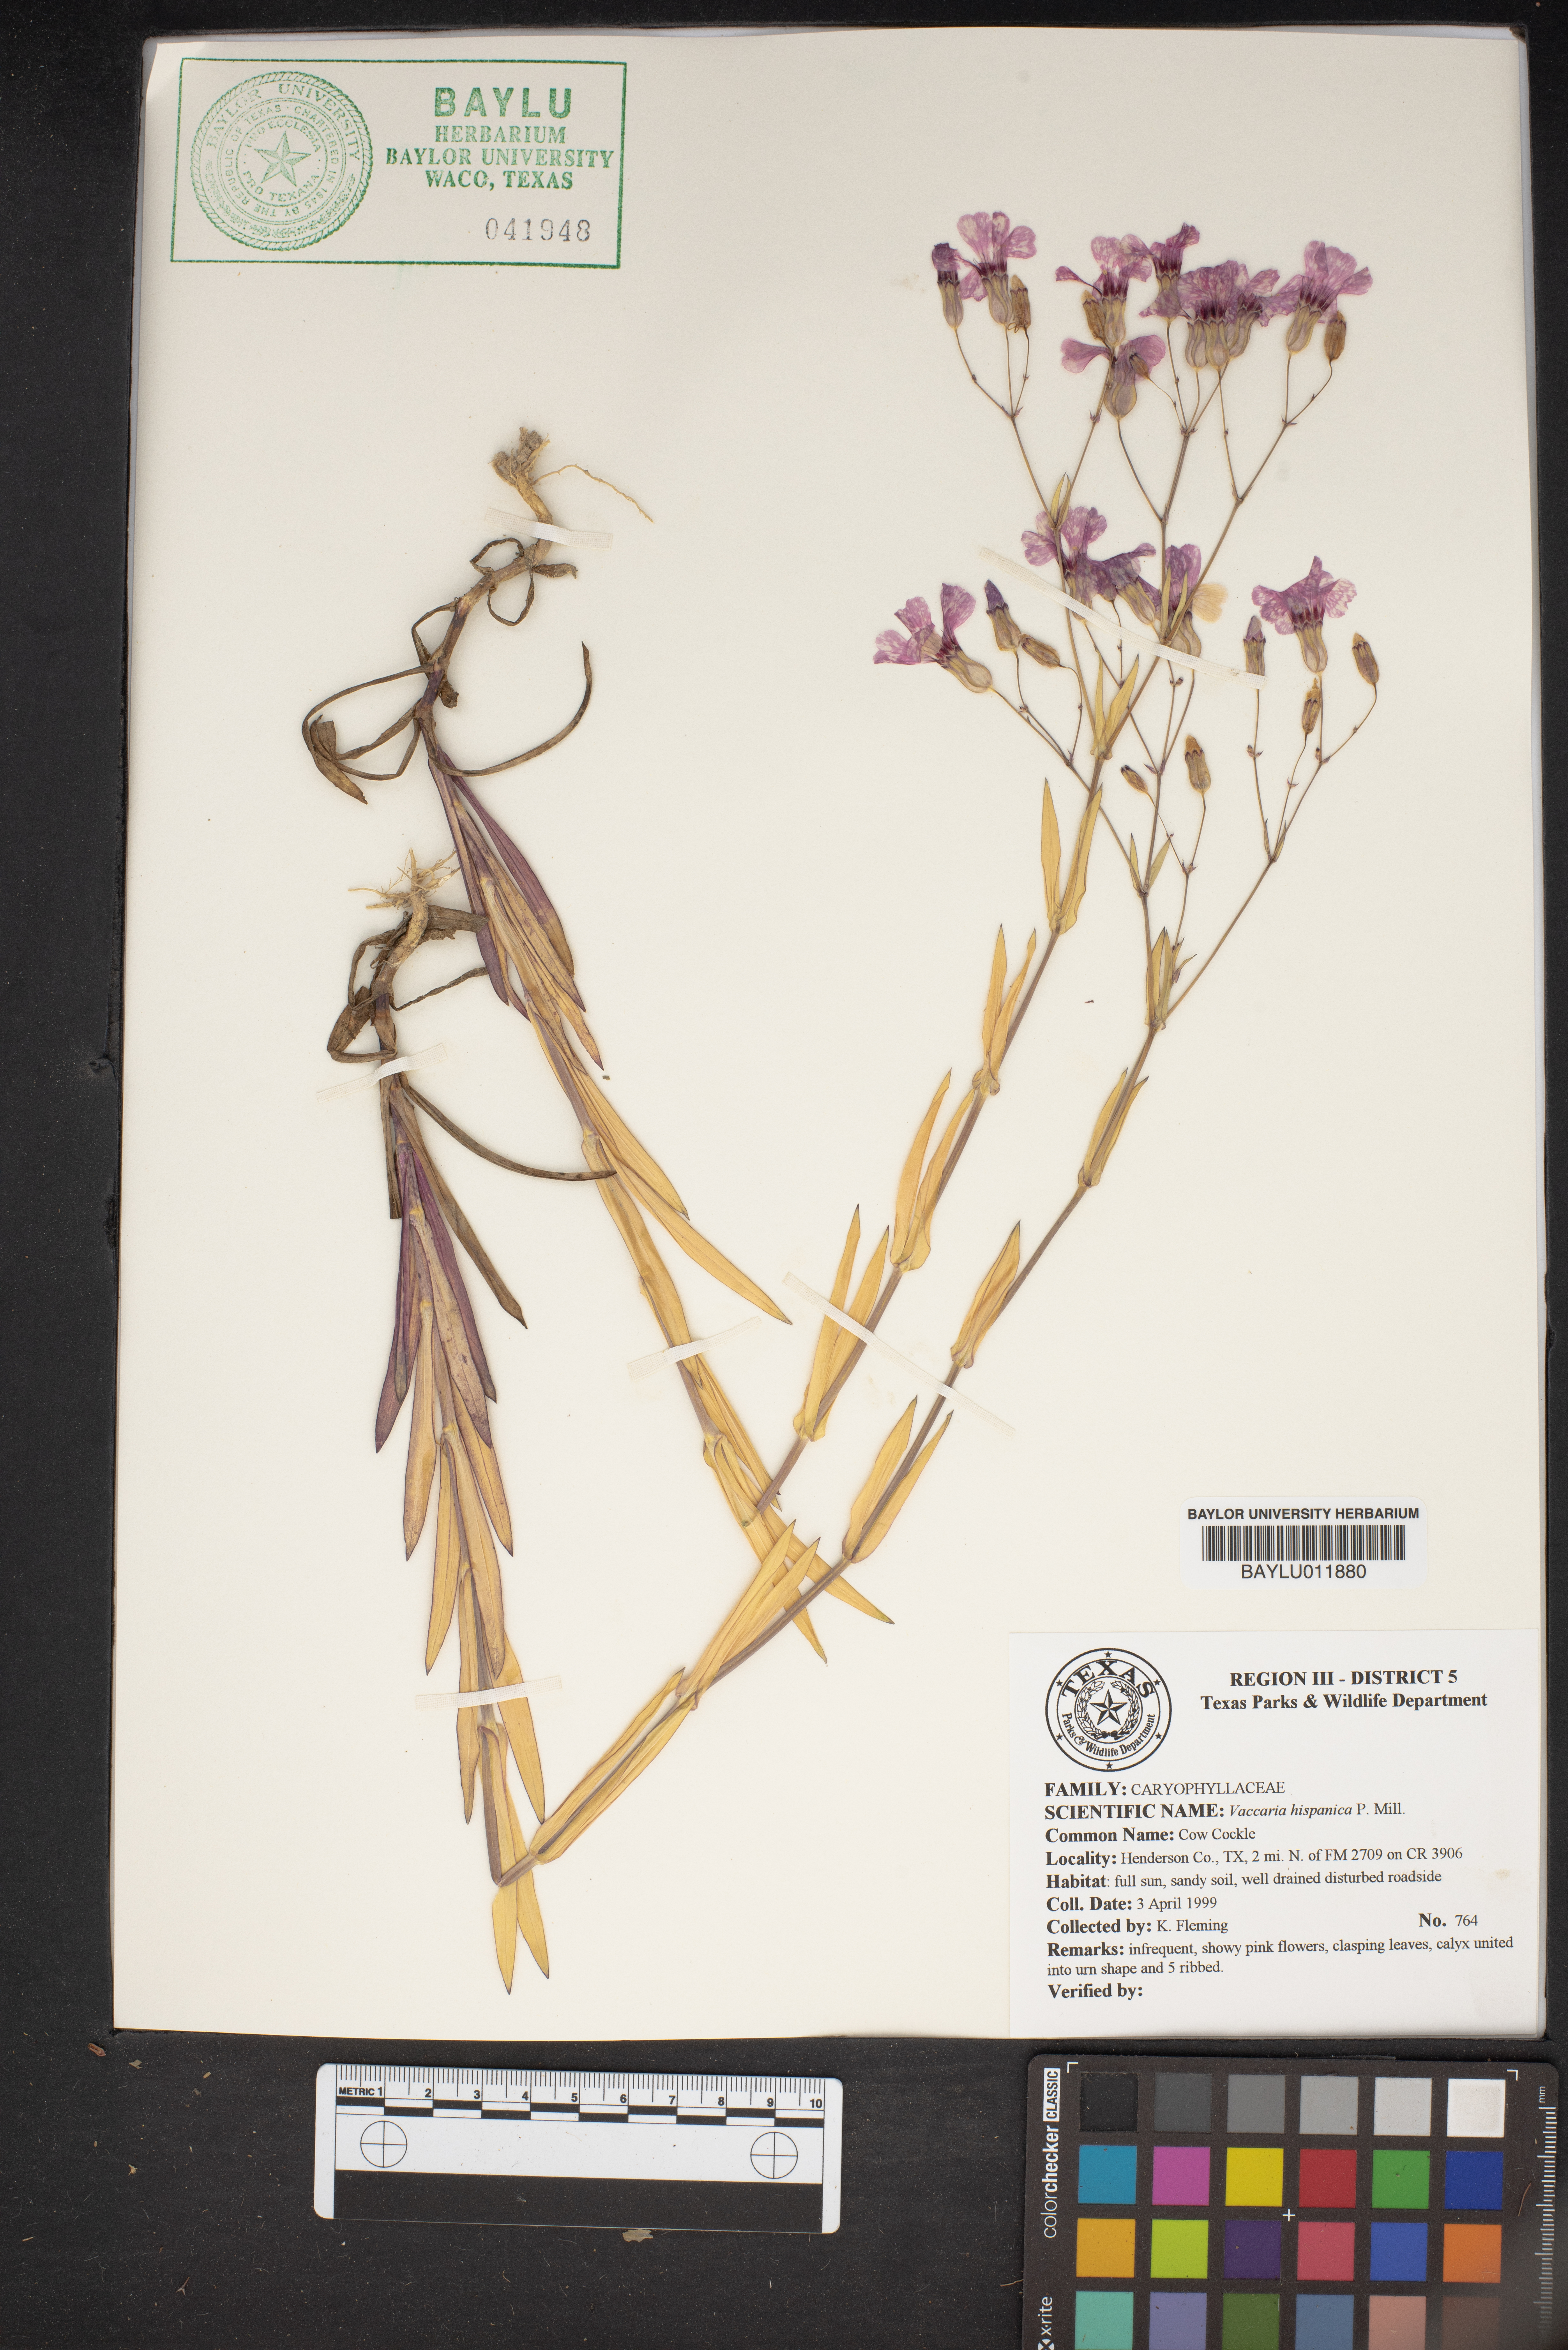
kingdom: Plantae
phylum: Tracheophyta
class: Magnoliopsida
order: Caryophyllales
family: Caryophyllaceae
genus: Gypsophila
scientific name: Gypsophila vaccaria
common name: Cow soapwort
